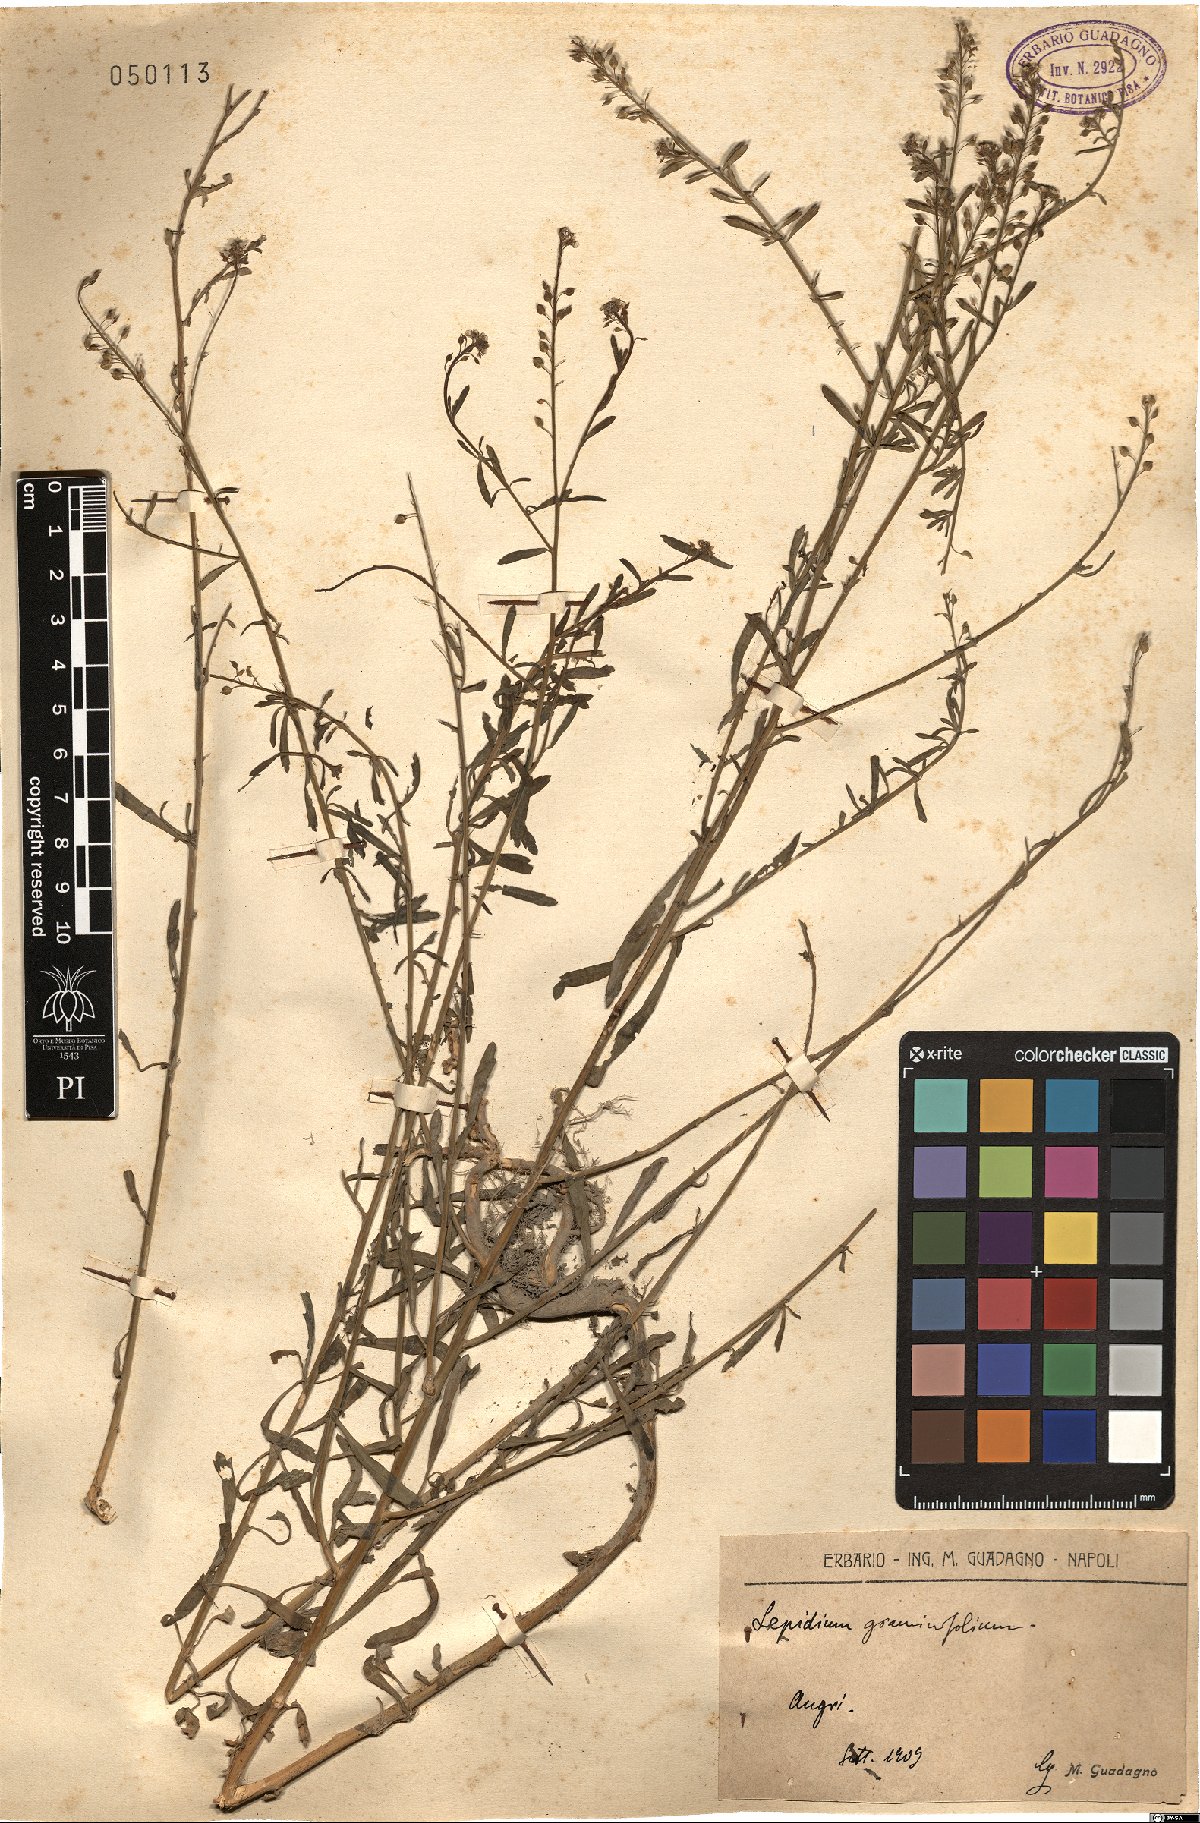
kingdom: Plantae
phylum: Tracheophyta
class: Magnoliopsida
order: Brassicales
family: Brassicaceae
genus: Lepidium
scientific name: Lepidium graminifolium
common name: Tall pepperwort
